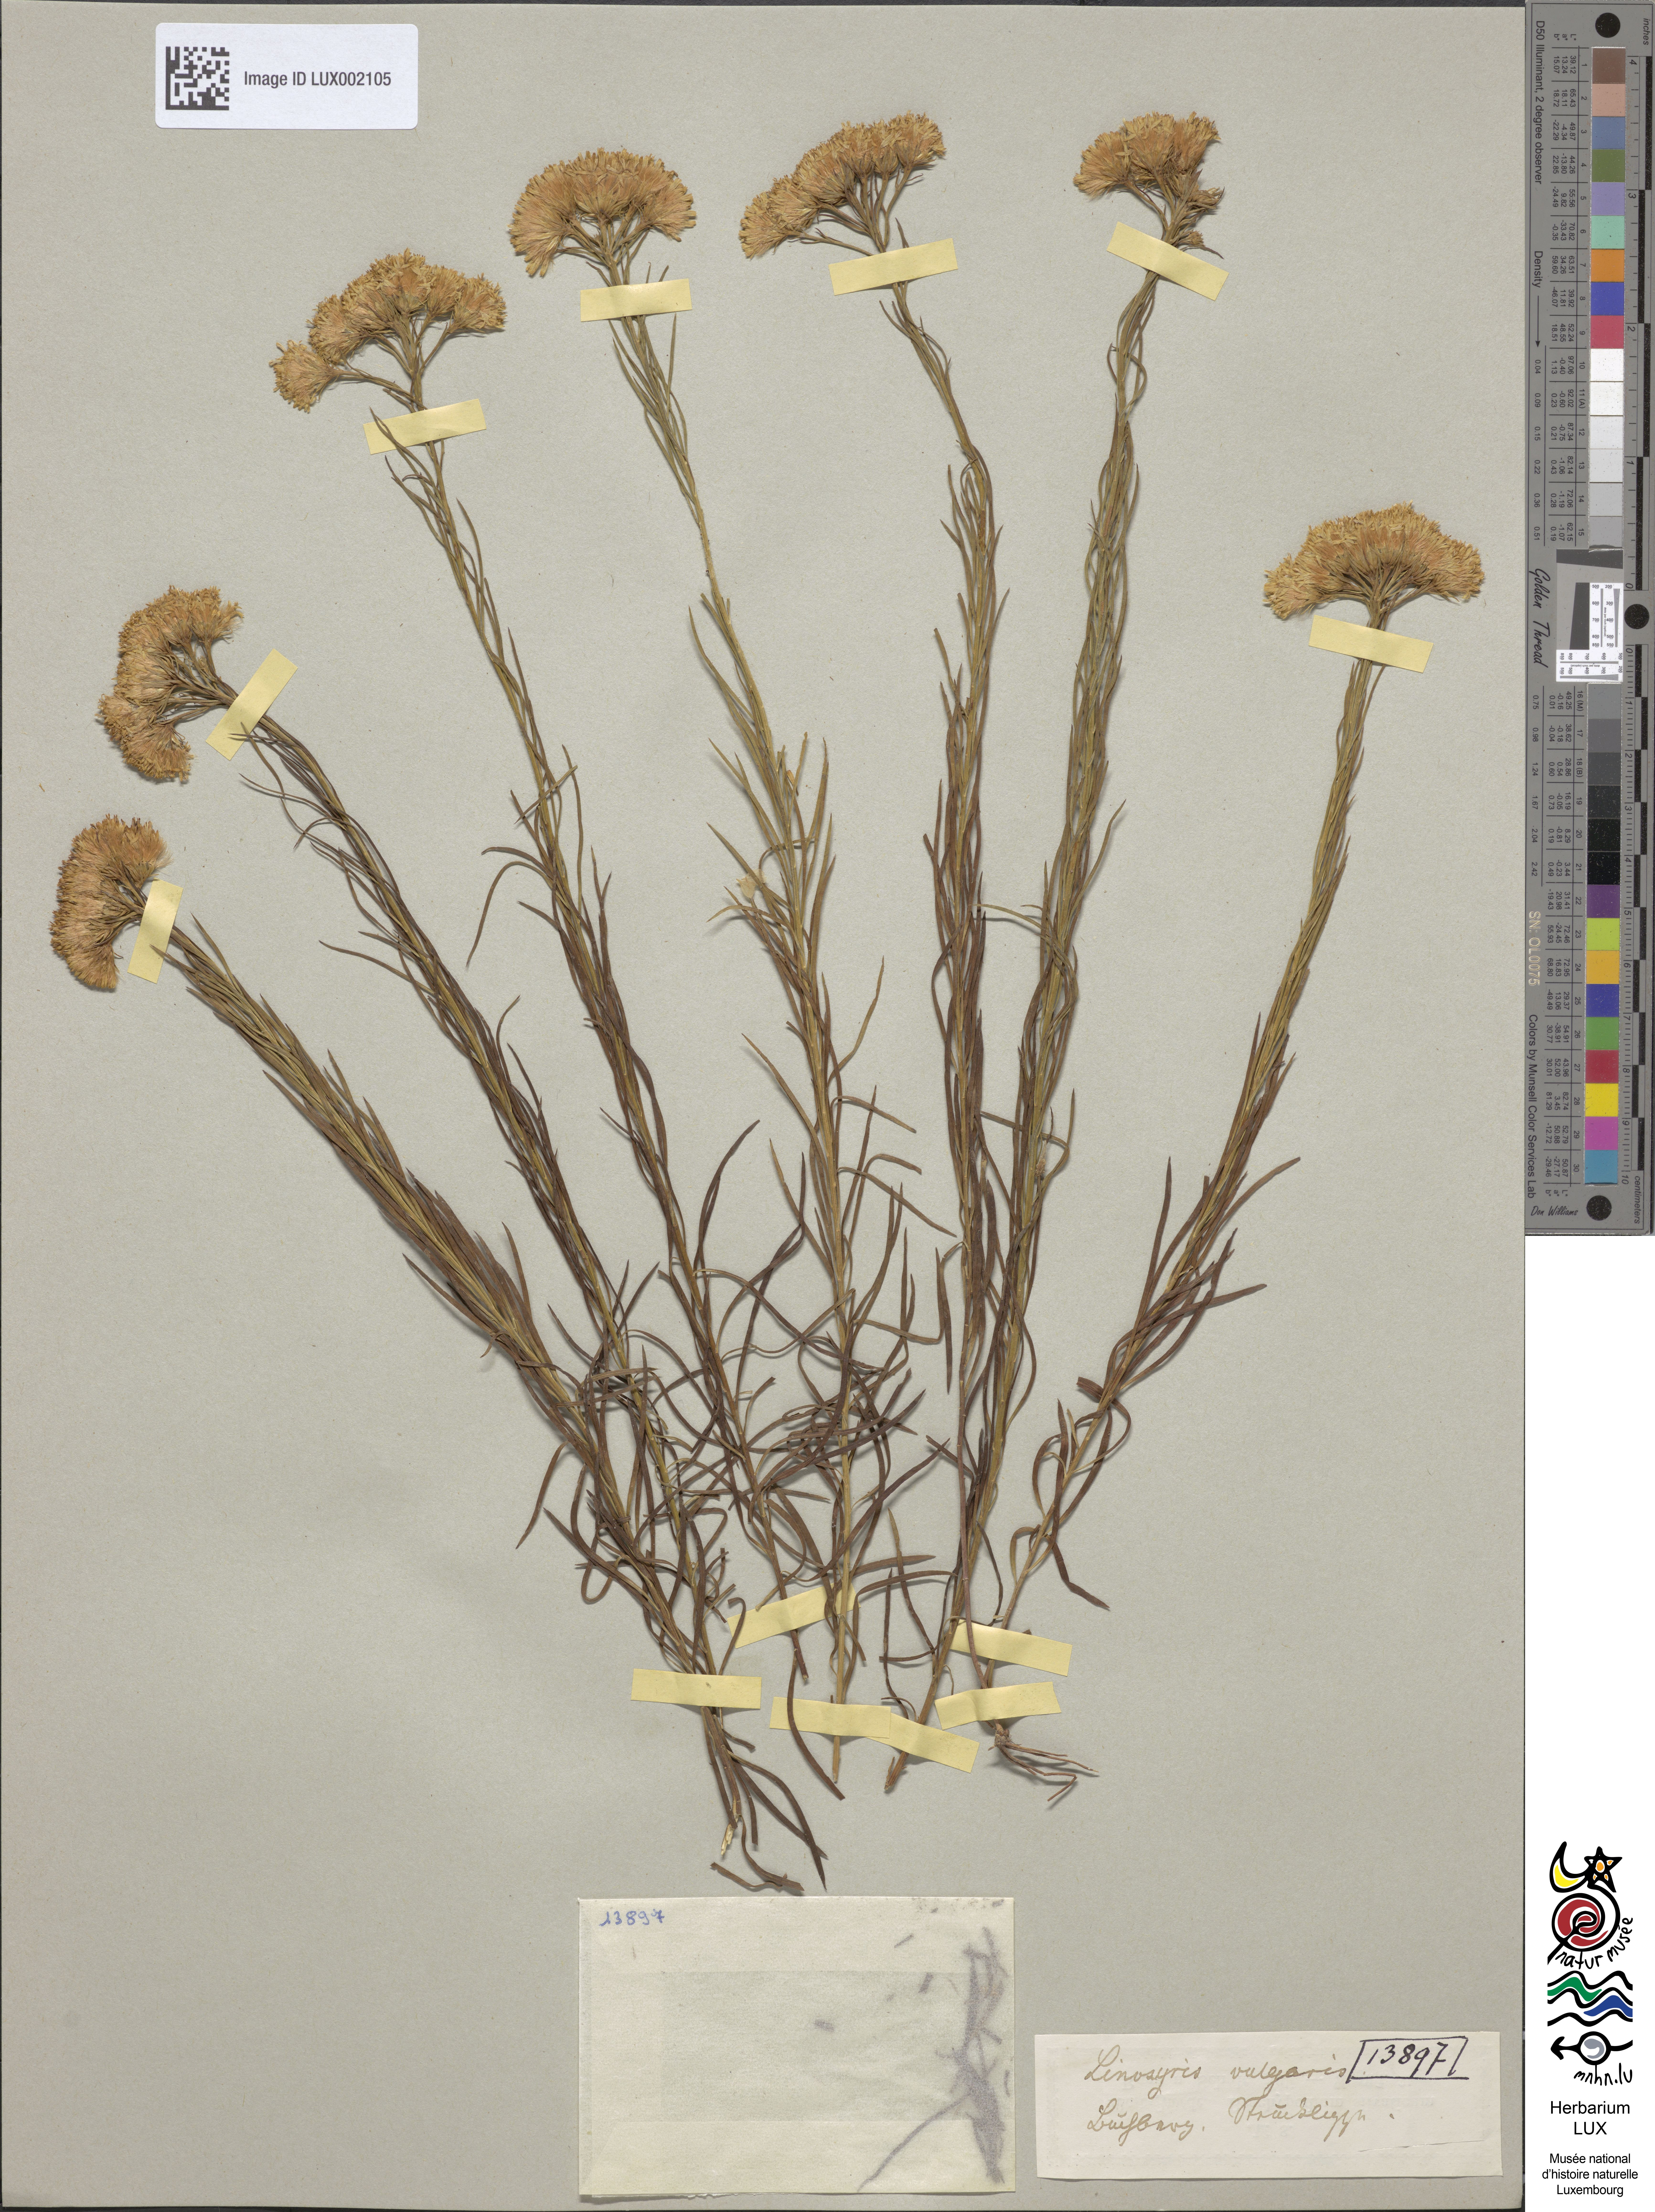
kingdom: Plantae
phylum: Tracheophyta
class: Magnoliopsida
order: Asterales
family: Asteraceae
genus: Galatella
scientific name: Galatella linosyris
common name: Goldilocks aster
